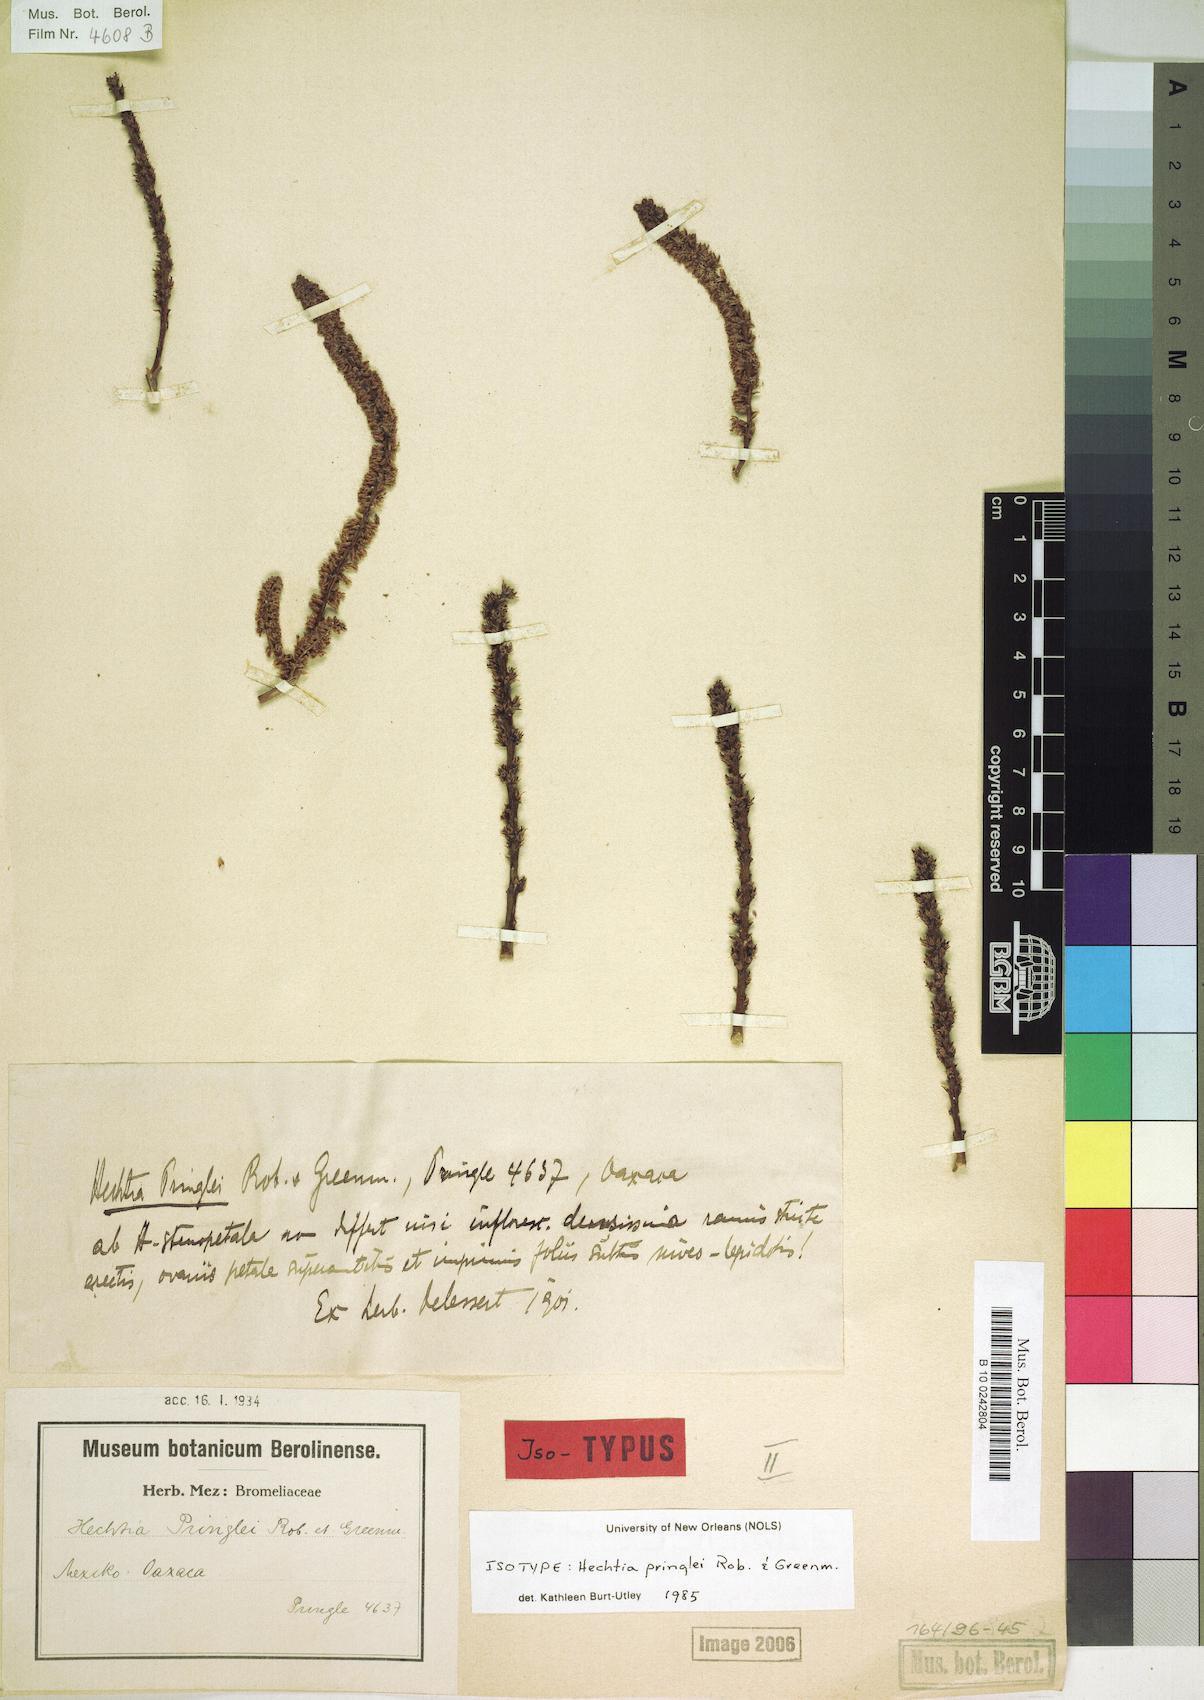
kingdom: Plantae
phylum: Tracheophyta
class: Liliopsida
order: Poales
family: Bromeliaceae
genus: Hechtia
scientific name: Hechtia pringlei
